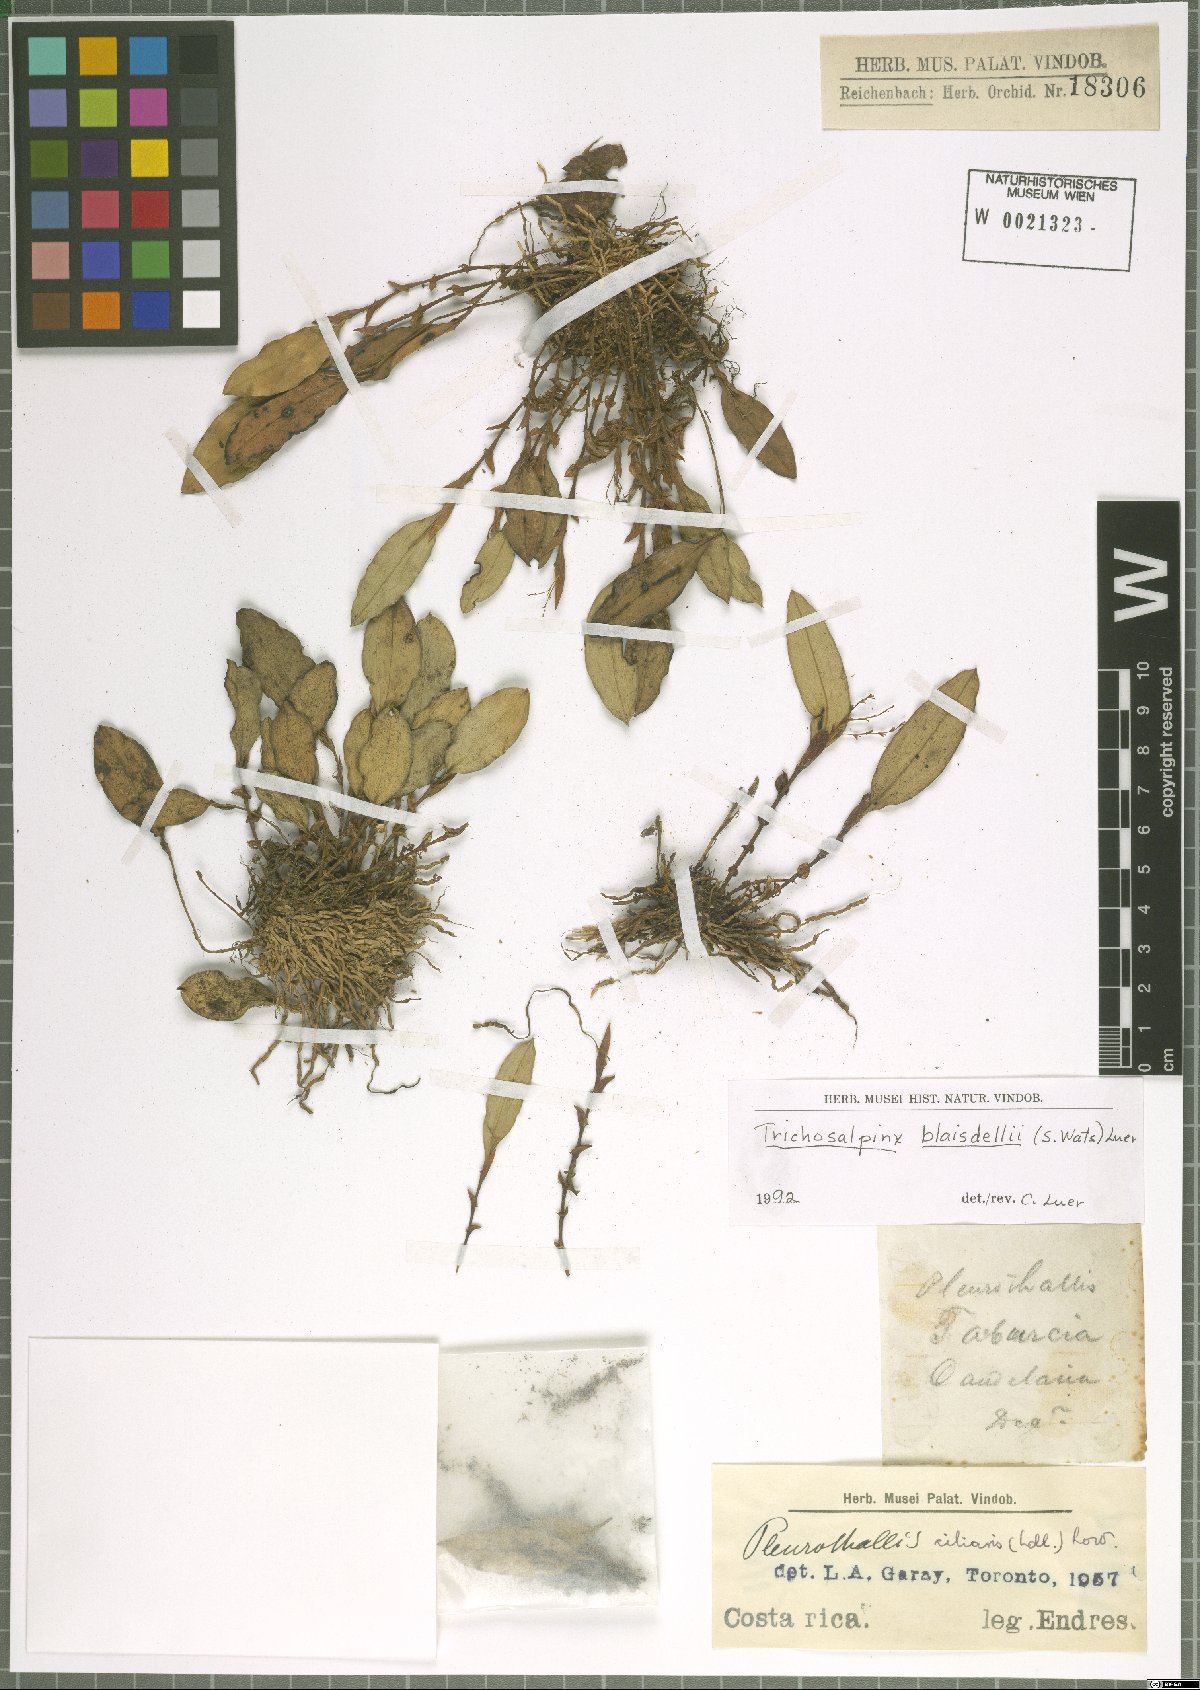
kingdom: Plantae
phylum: Tracheophyta
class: Liliopsida
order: Asparagales
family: Orchidaceae
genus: Trichosalpinx
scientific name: Trichosalpinx blaisdellii
